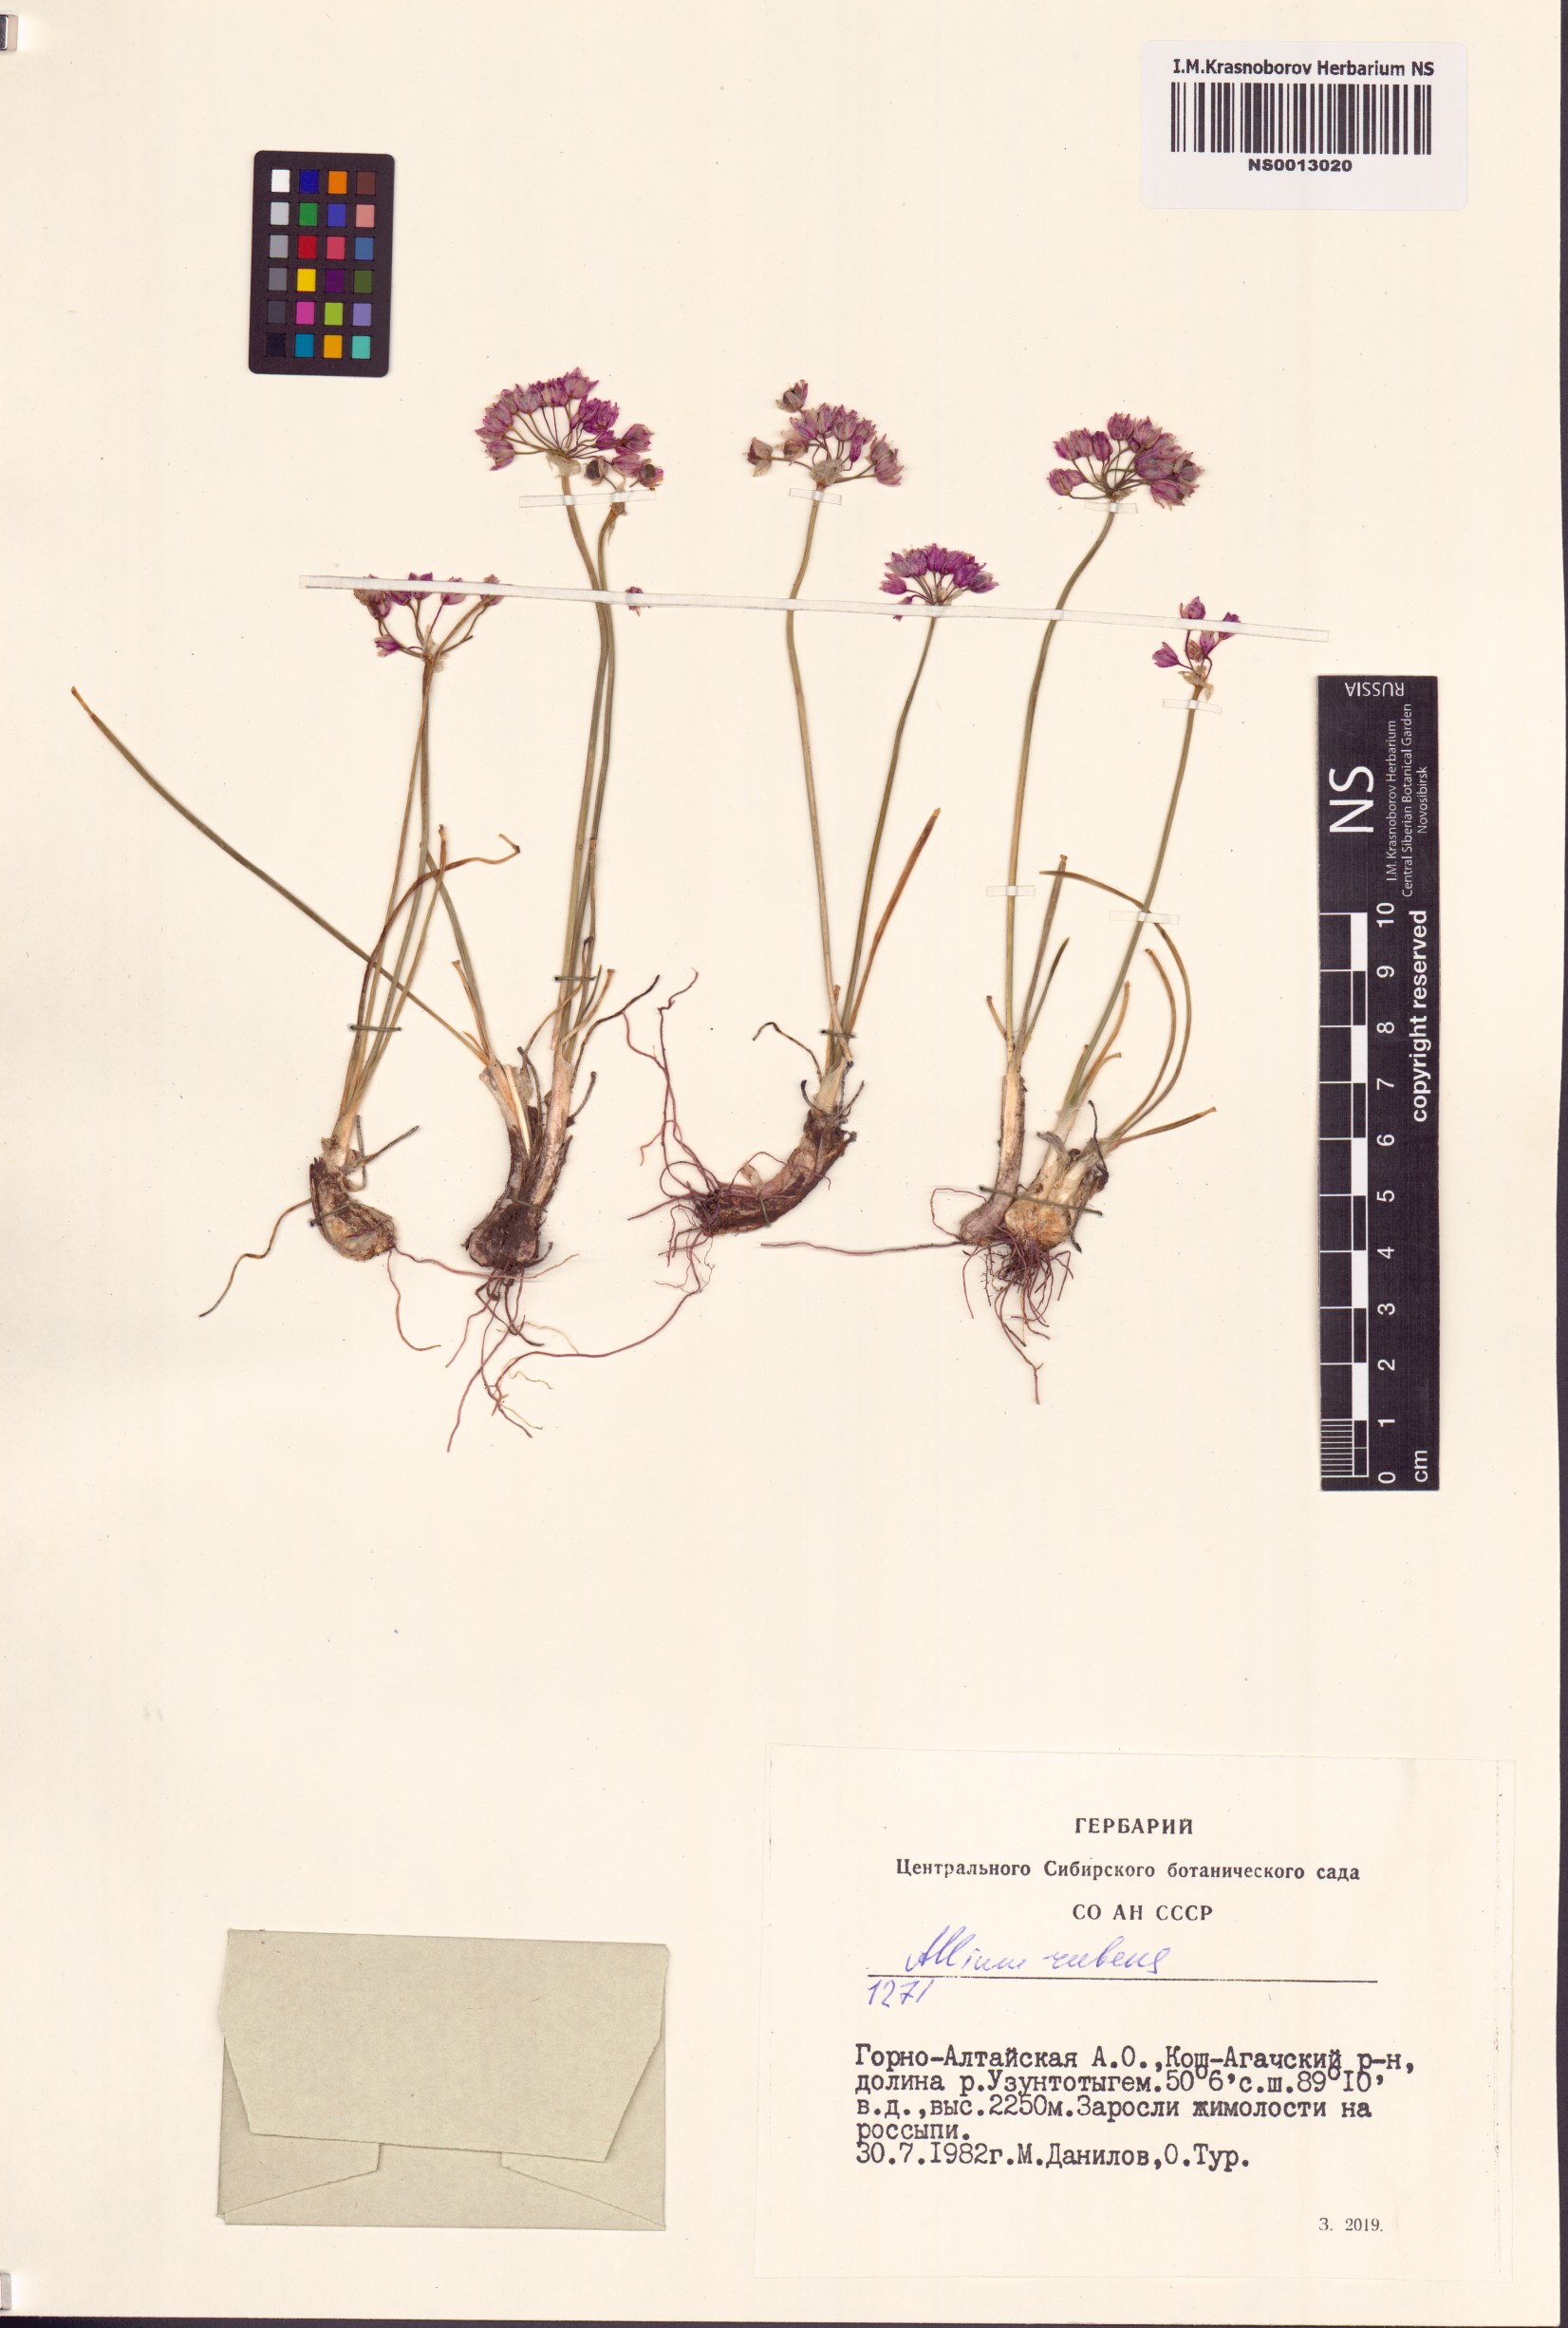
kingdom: Plantae
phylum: Tracheophyta
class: Liliopsida
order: Asparagales
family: Amaryllidaceae
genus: Allium
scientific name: Allium rubens
